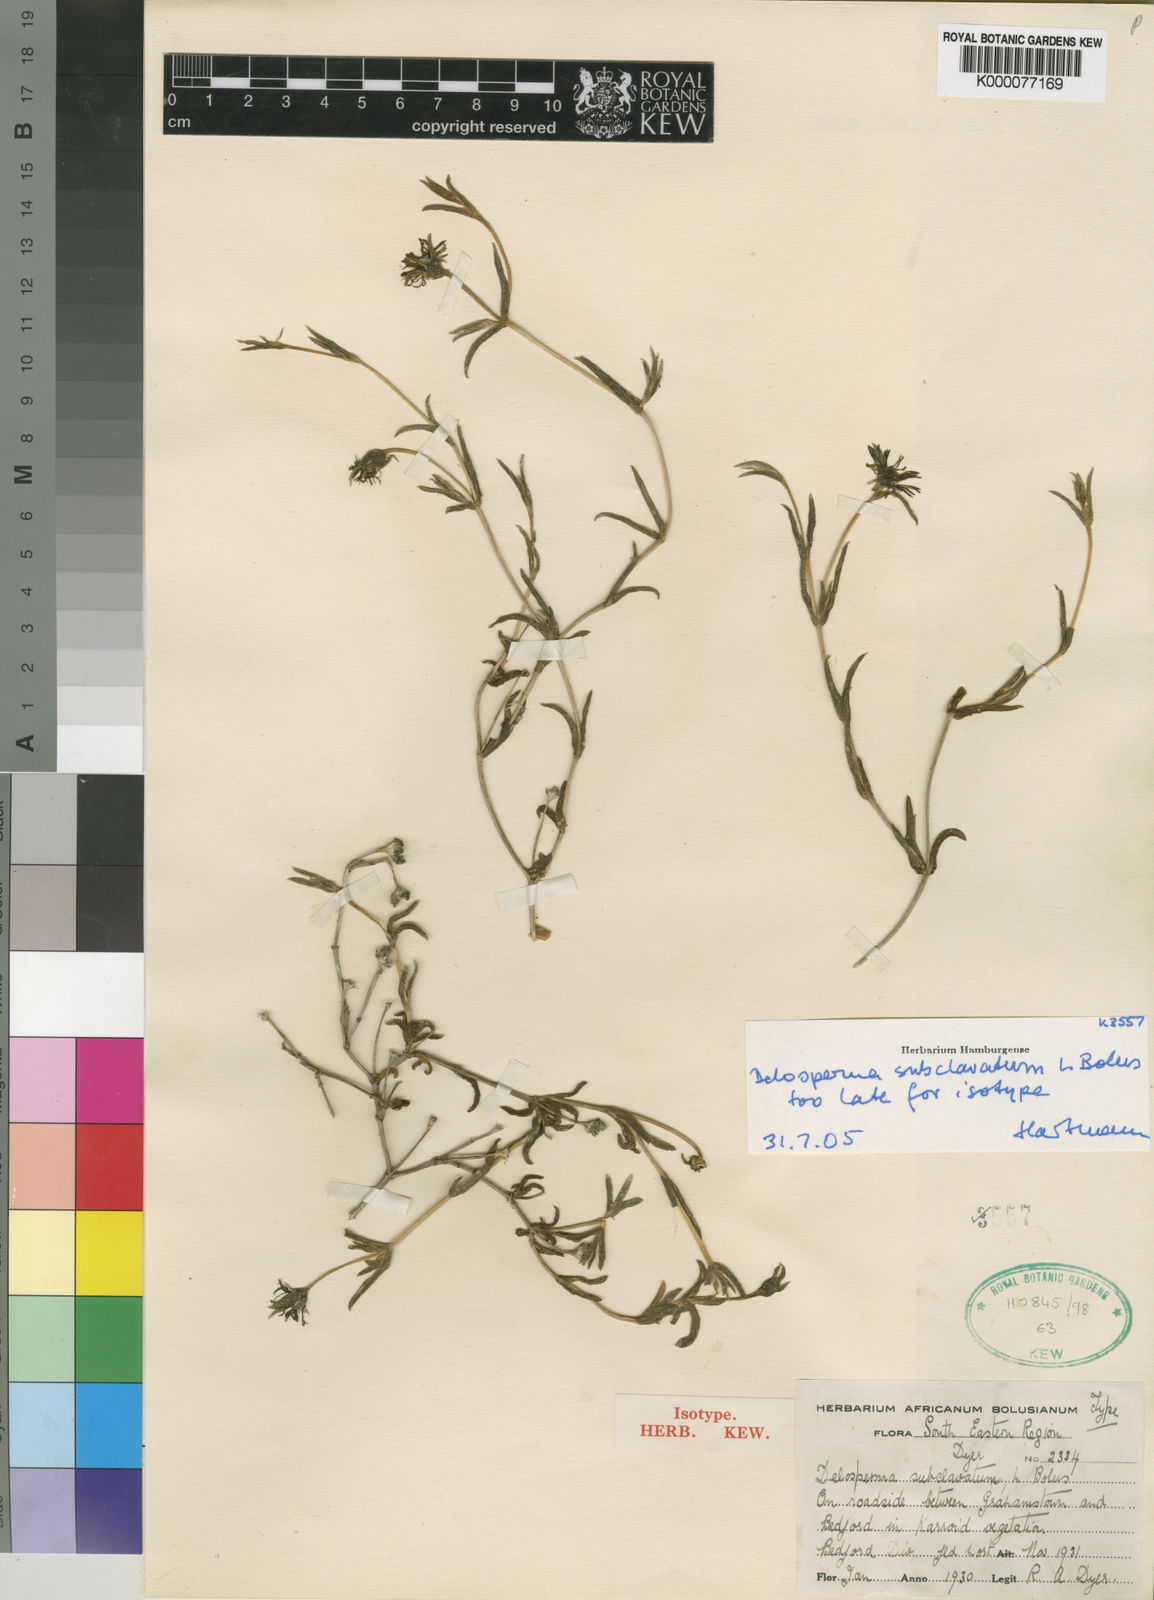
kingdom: Plantae
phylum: Tracheophyta
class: Magnoliopsida
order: Caryophyllales
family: Aizoaceae
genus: Delosperma
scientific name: Delosperma subclavatum
